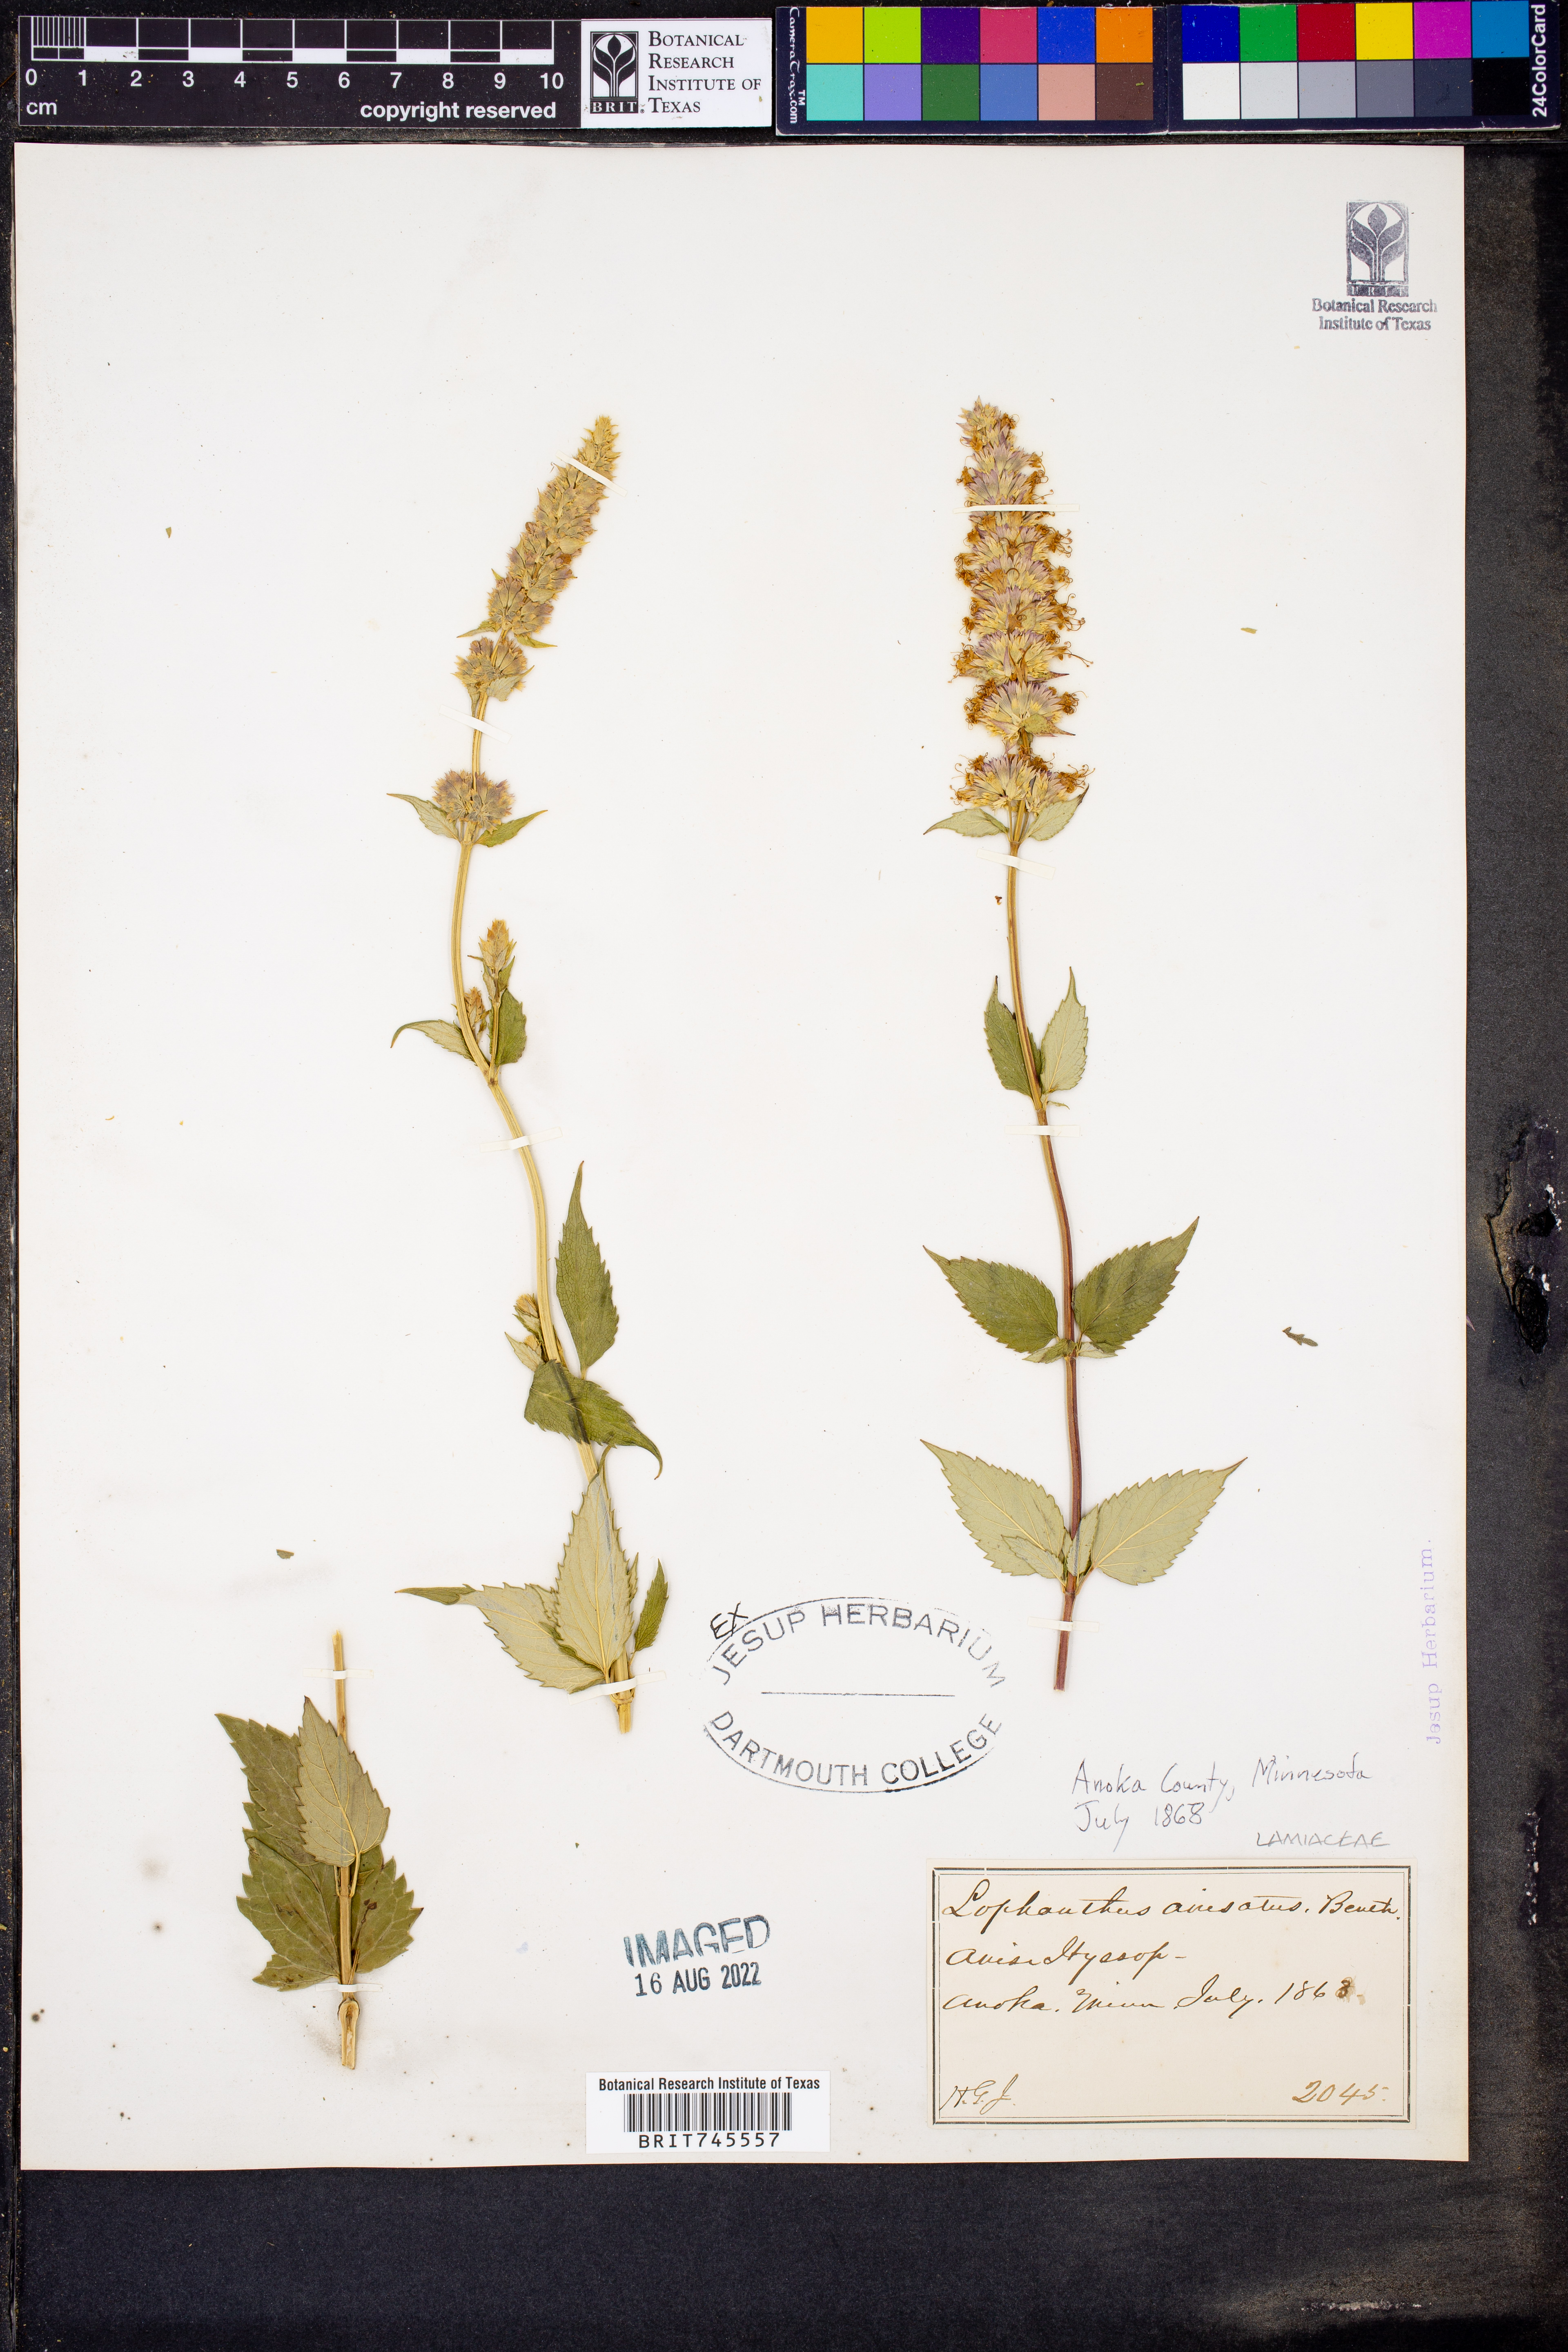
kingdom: Plantae
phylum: Tracheophyta
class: Magnoliopsida
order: Lamiales
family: Lamiaceae
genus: Agastache
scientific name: Agastache
